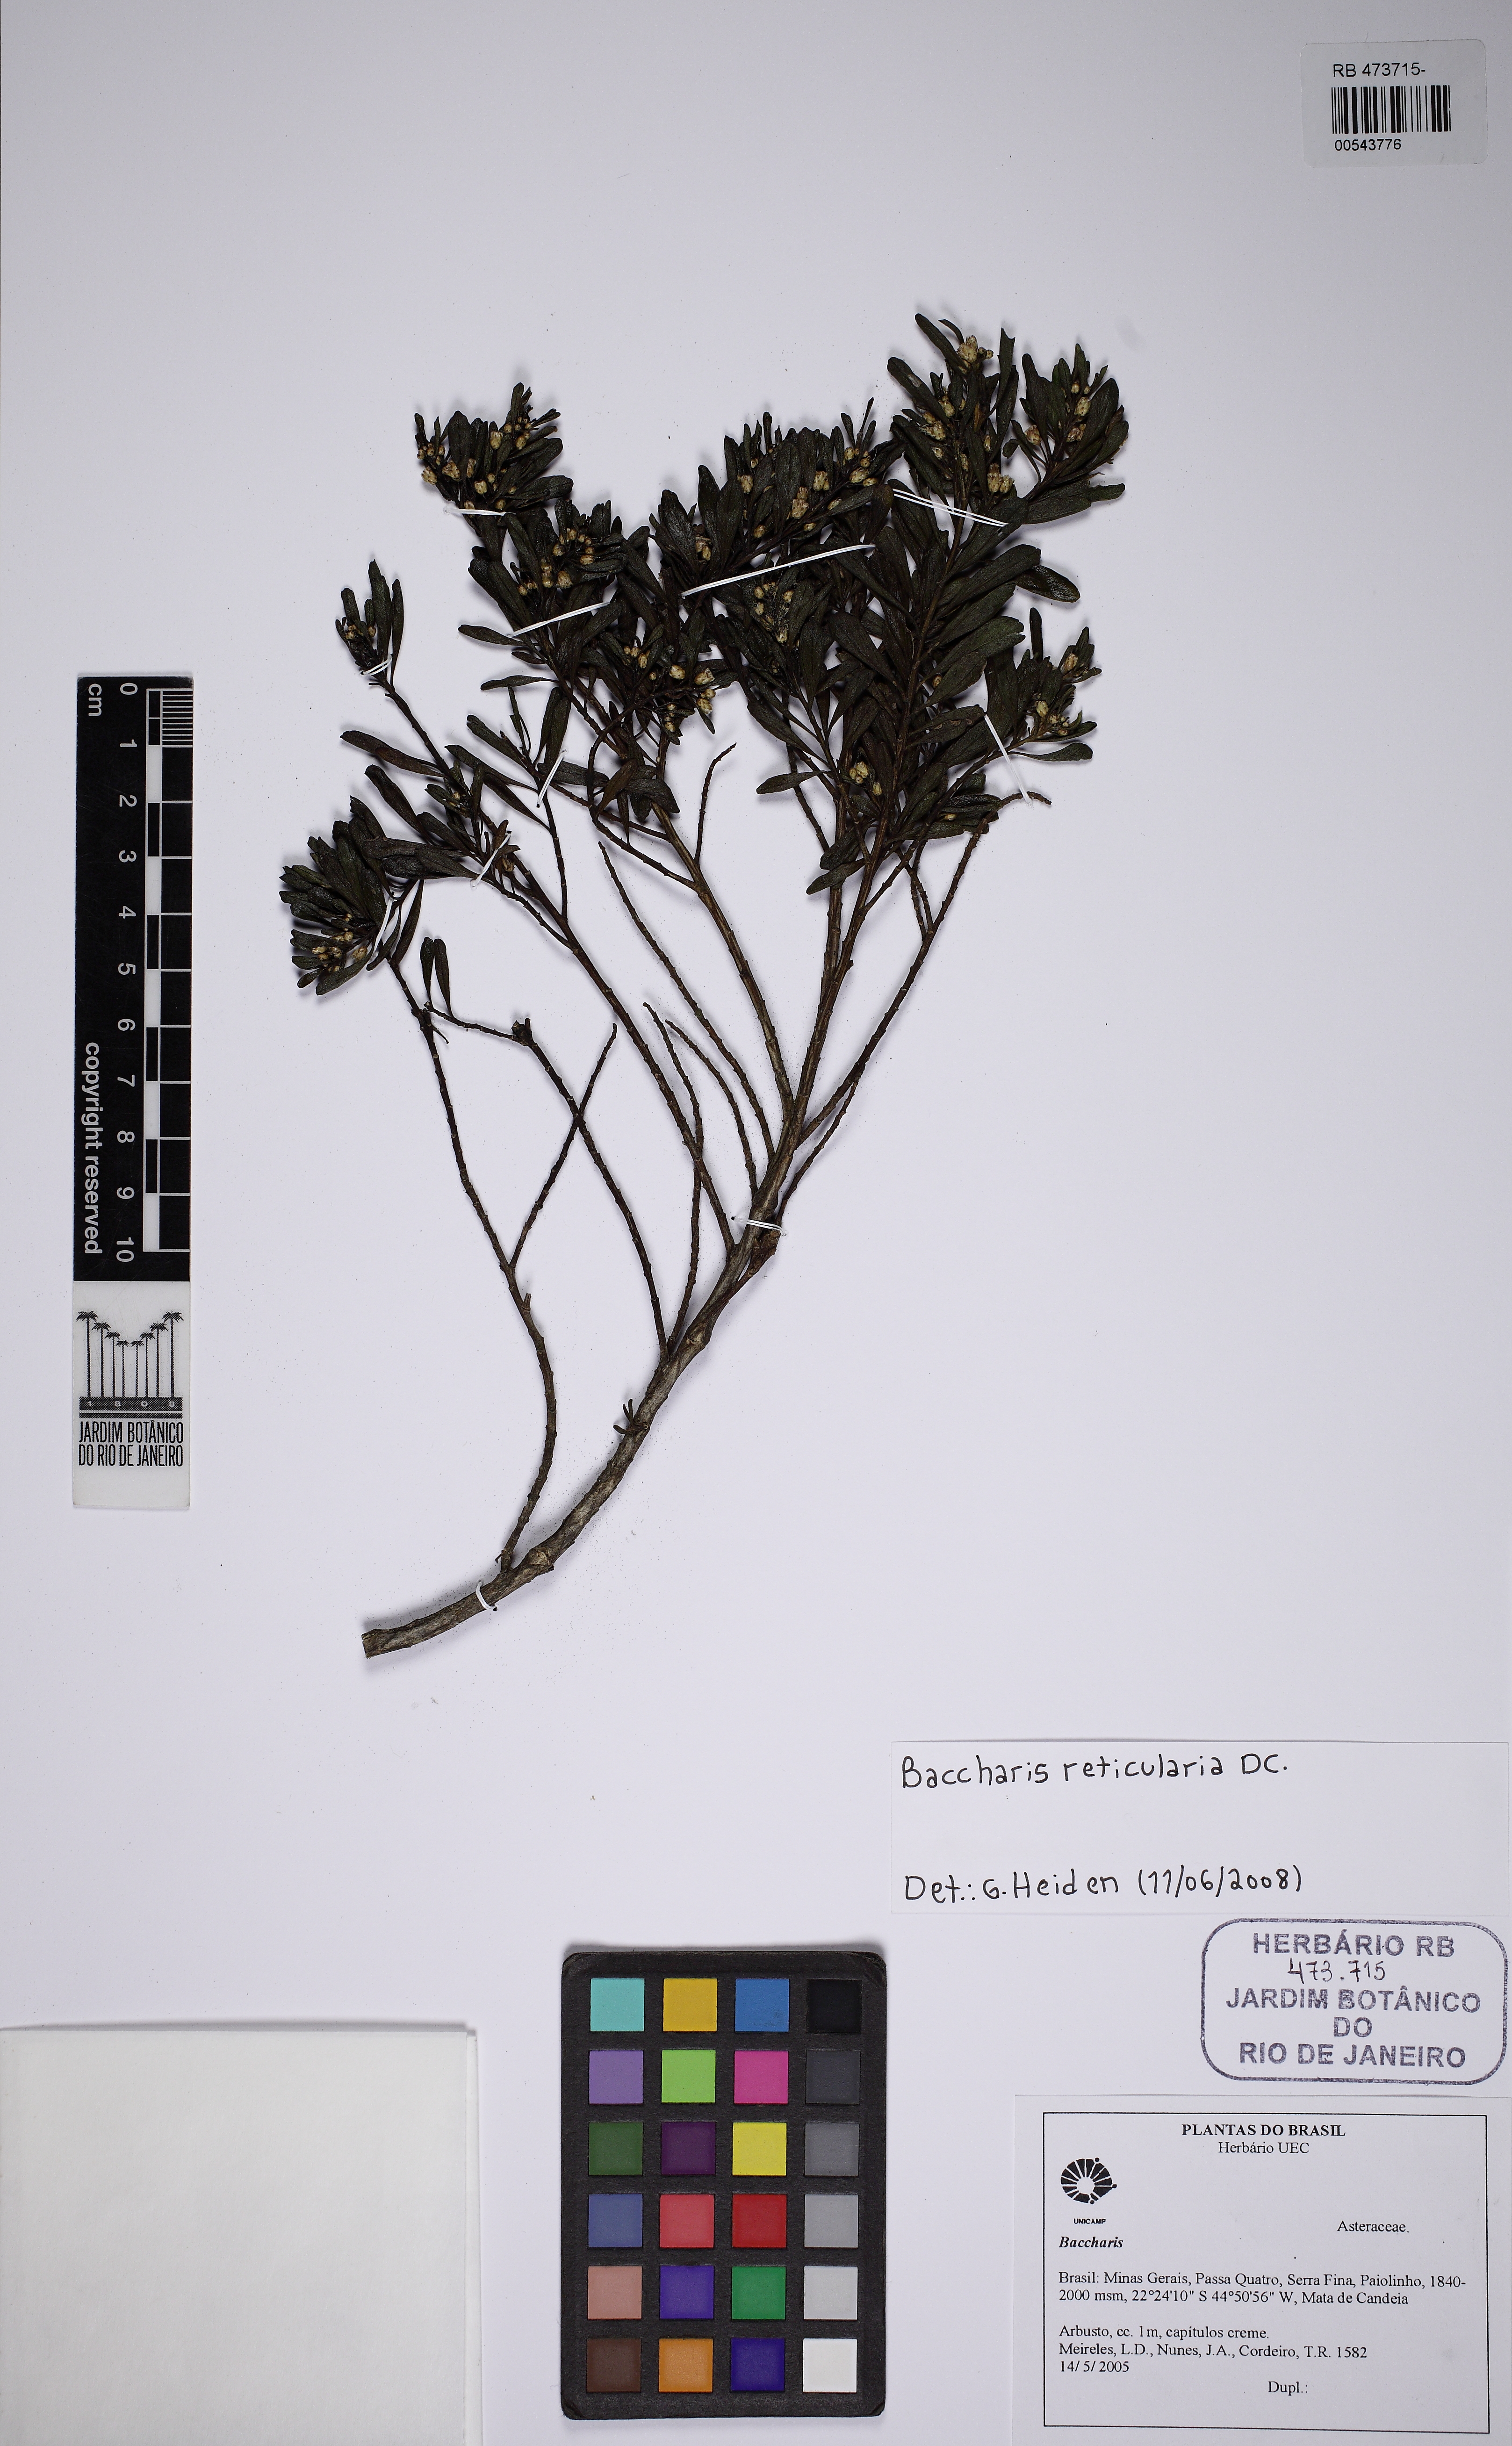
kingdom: Plantae
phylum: Tracheophyta
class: Magnoliopsida
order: Asterales
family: Asteraceae
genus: Baccharis
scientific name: Baccharis reticularia
